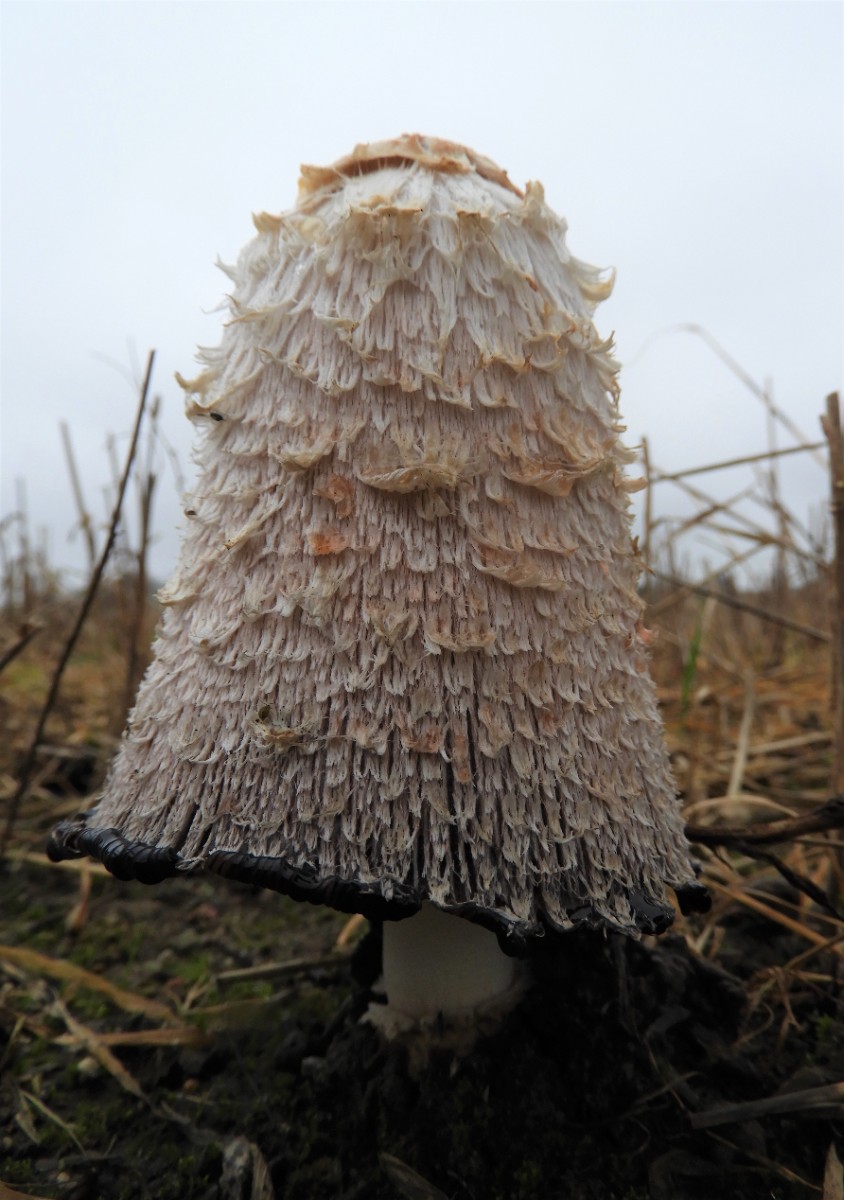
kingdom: Fungi
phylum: Basidiomycota
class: Agaricomycetes
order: Agaricales
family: Agaricaceae
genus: Coprinus
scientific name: Coprinus comatus
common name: stor parykhat
